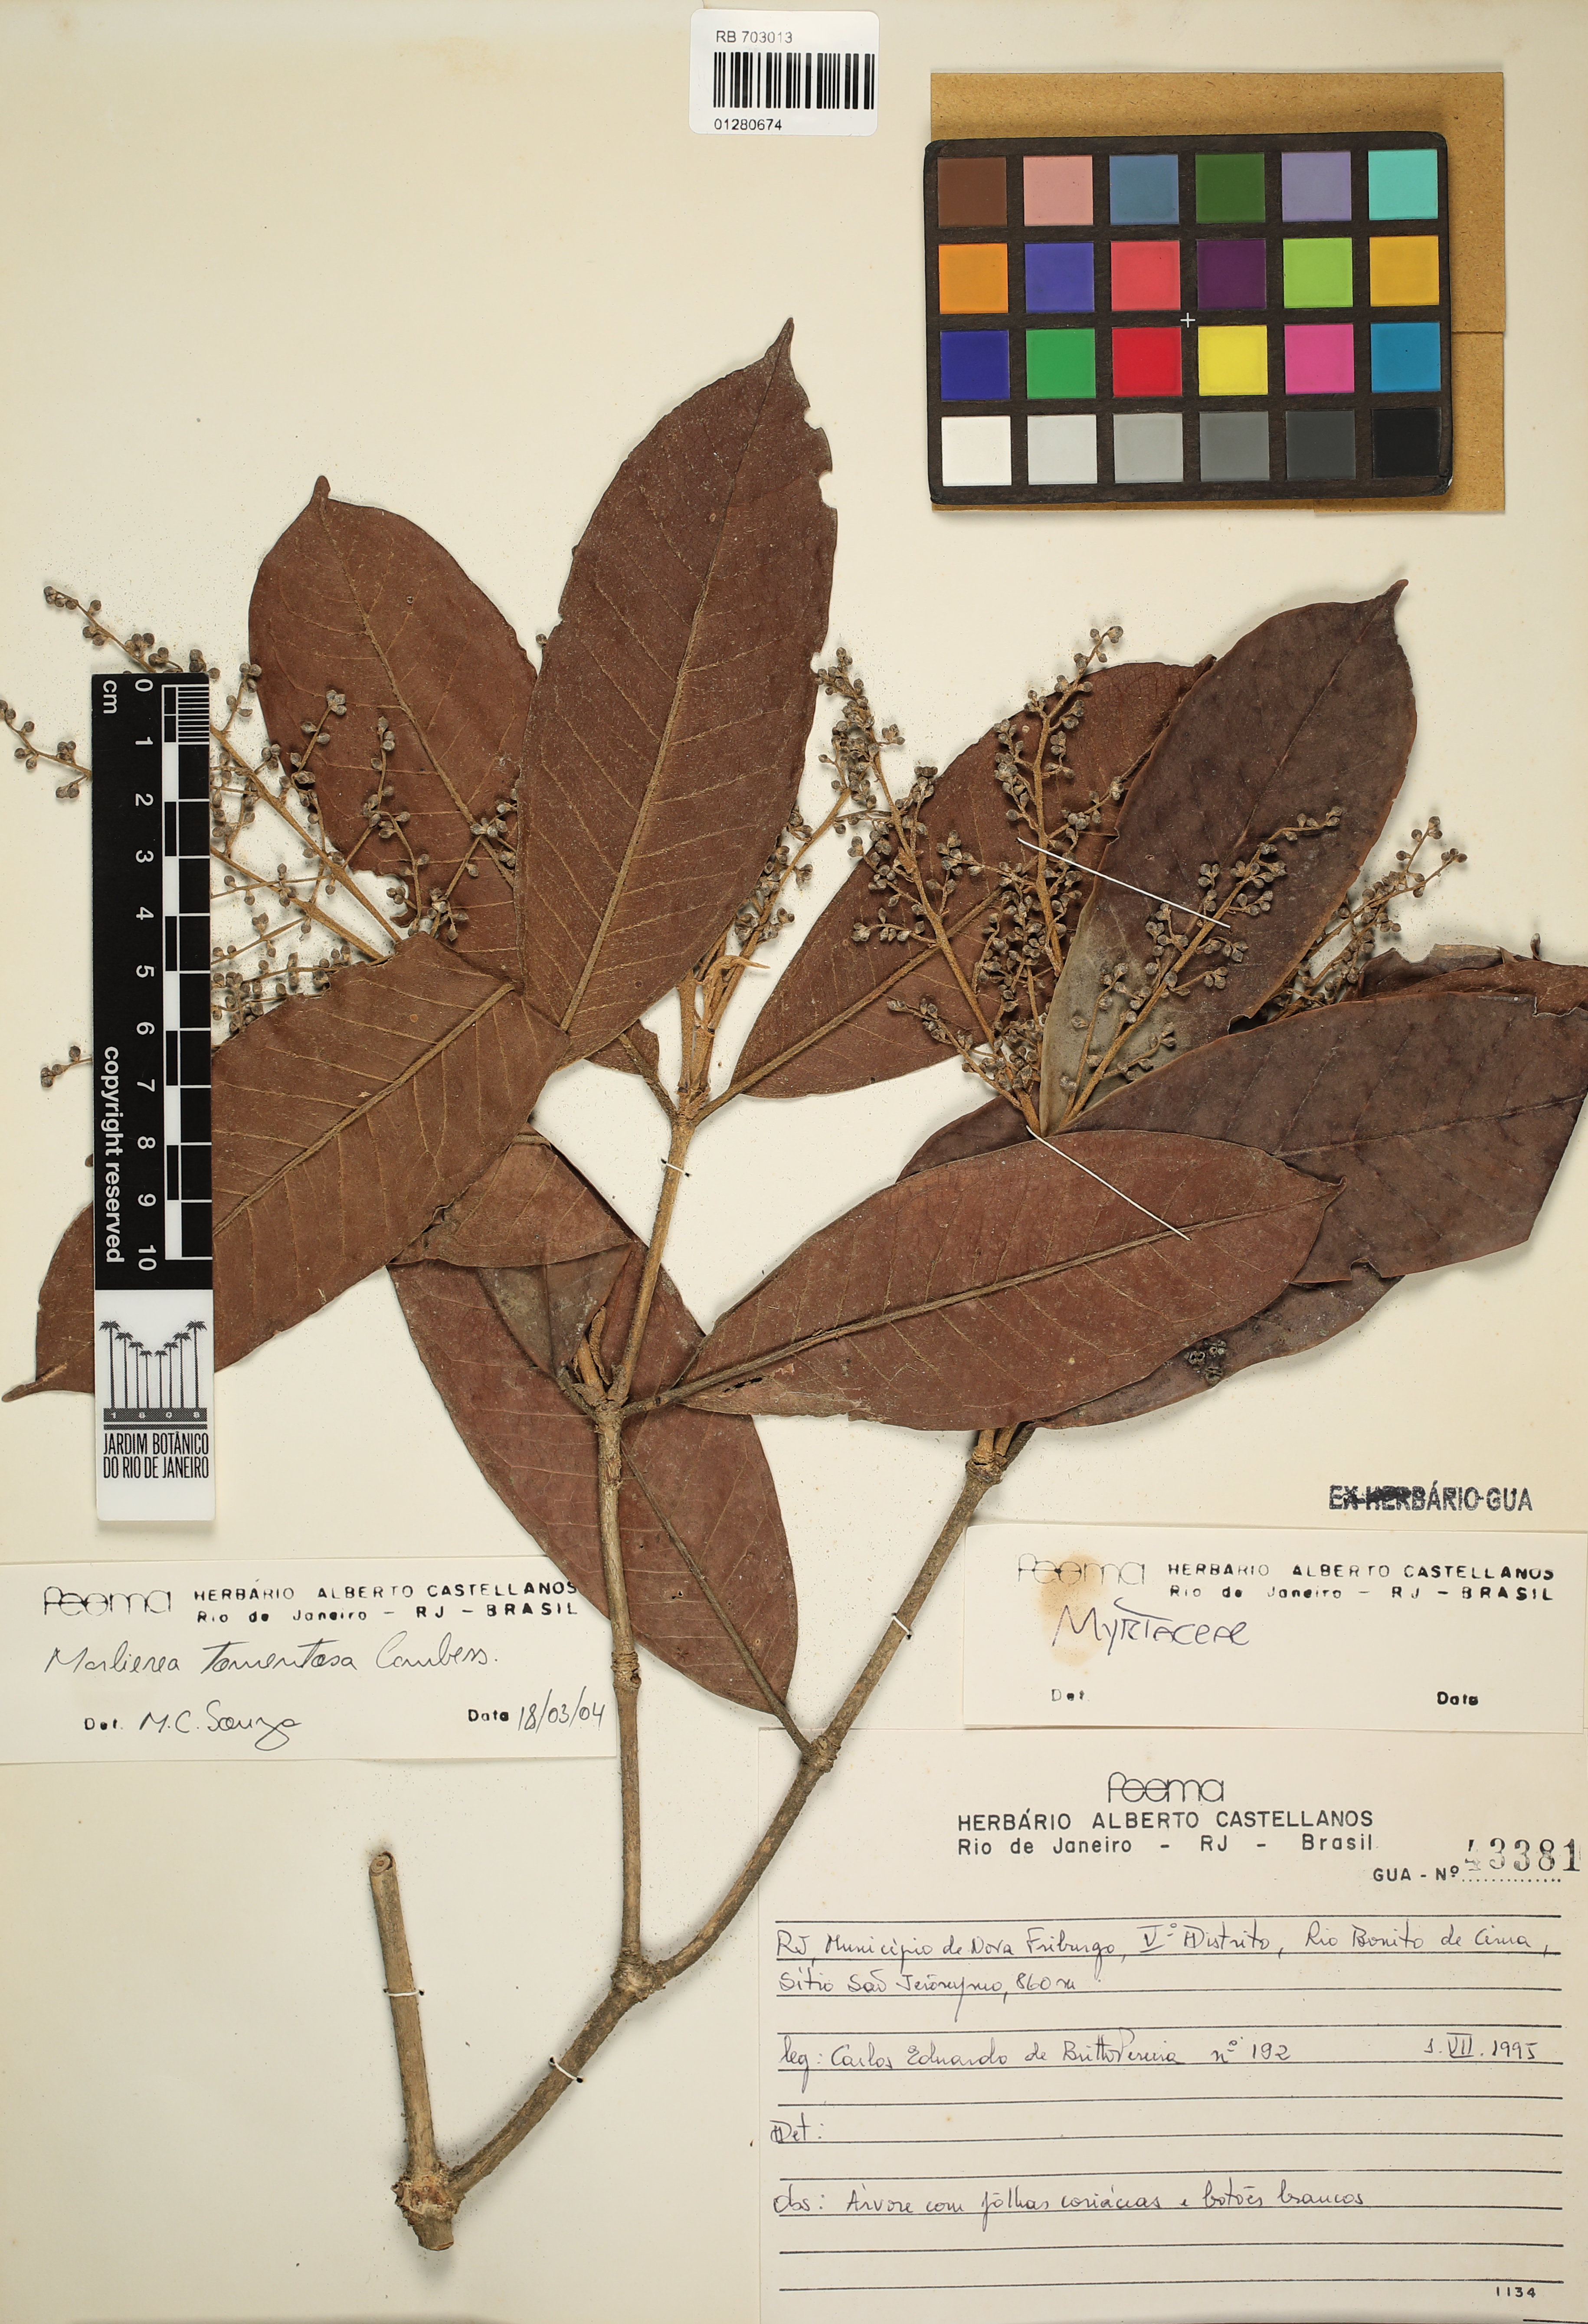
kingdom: Plantae
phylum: Tracheophyta
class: Magnoliopsida
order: Myrtales
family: Myrtaceae
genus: Myrcia
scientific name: Myrcia neotomentosa
